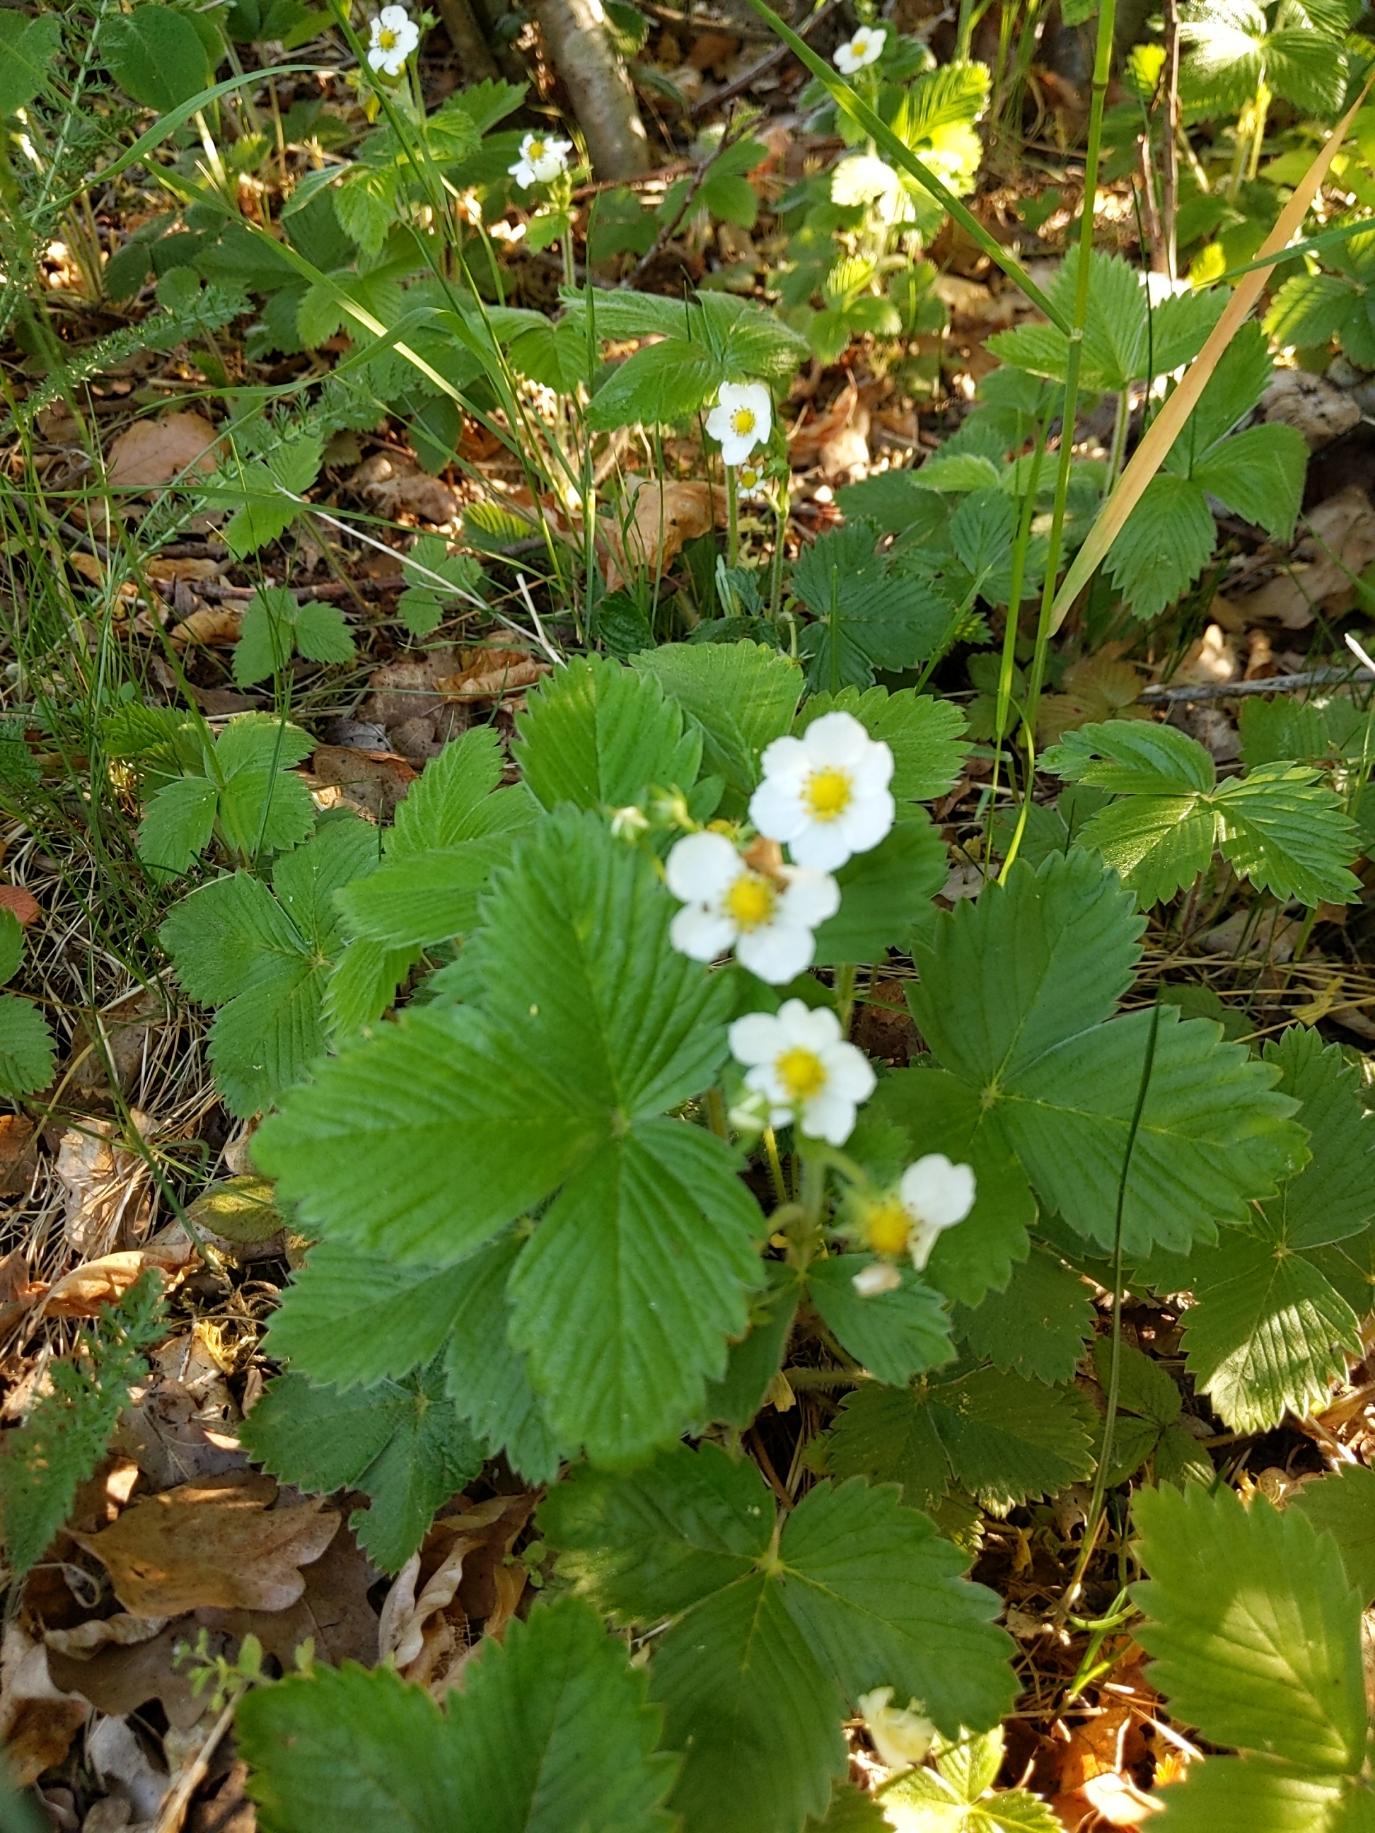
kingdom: Plantae
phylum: Tracheophyta
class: Magnoliopsida
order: Rosales
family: Rosaceae
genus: Fragaria
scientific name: Fragaria vesca
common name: Skov-jordbær
